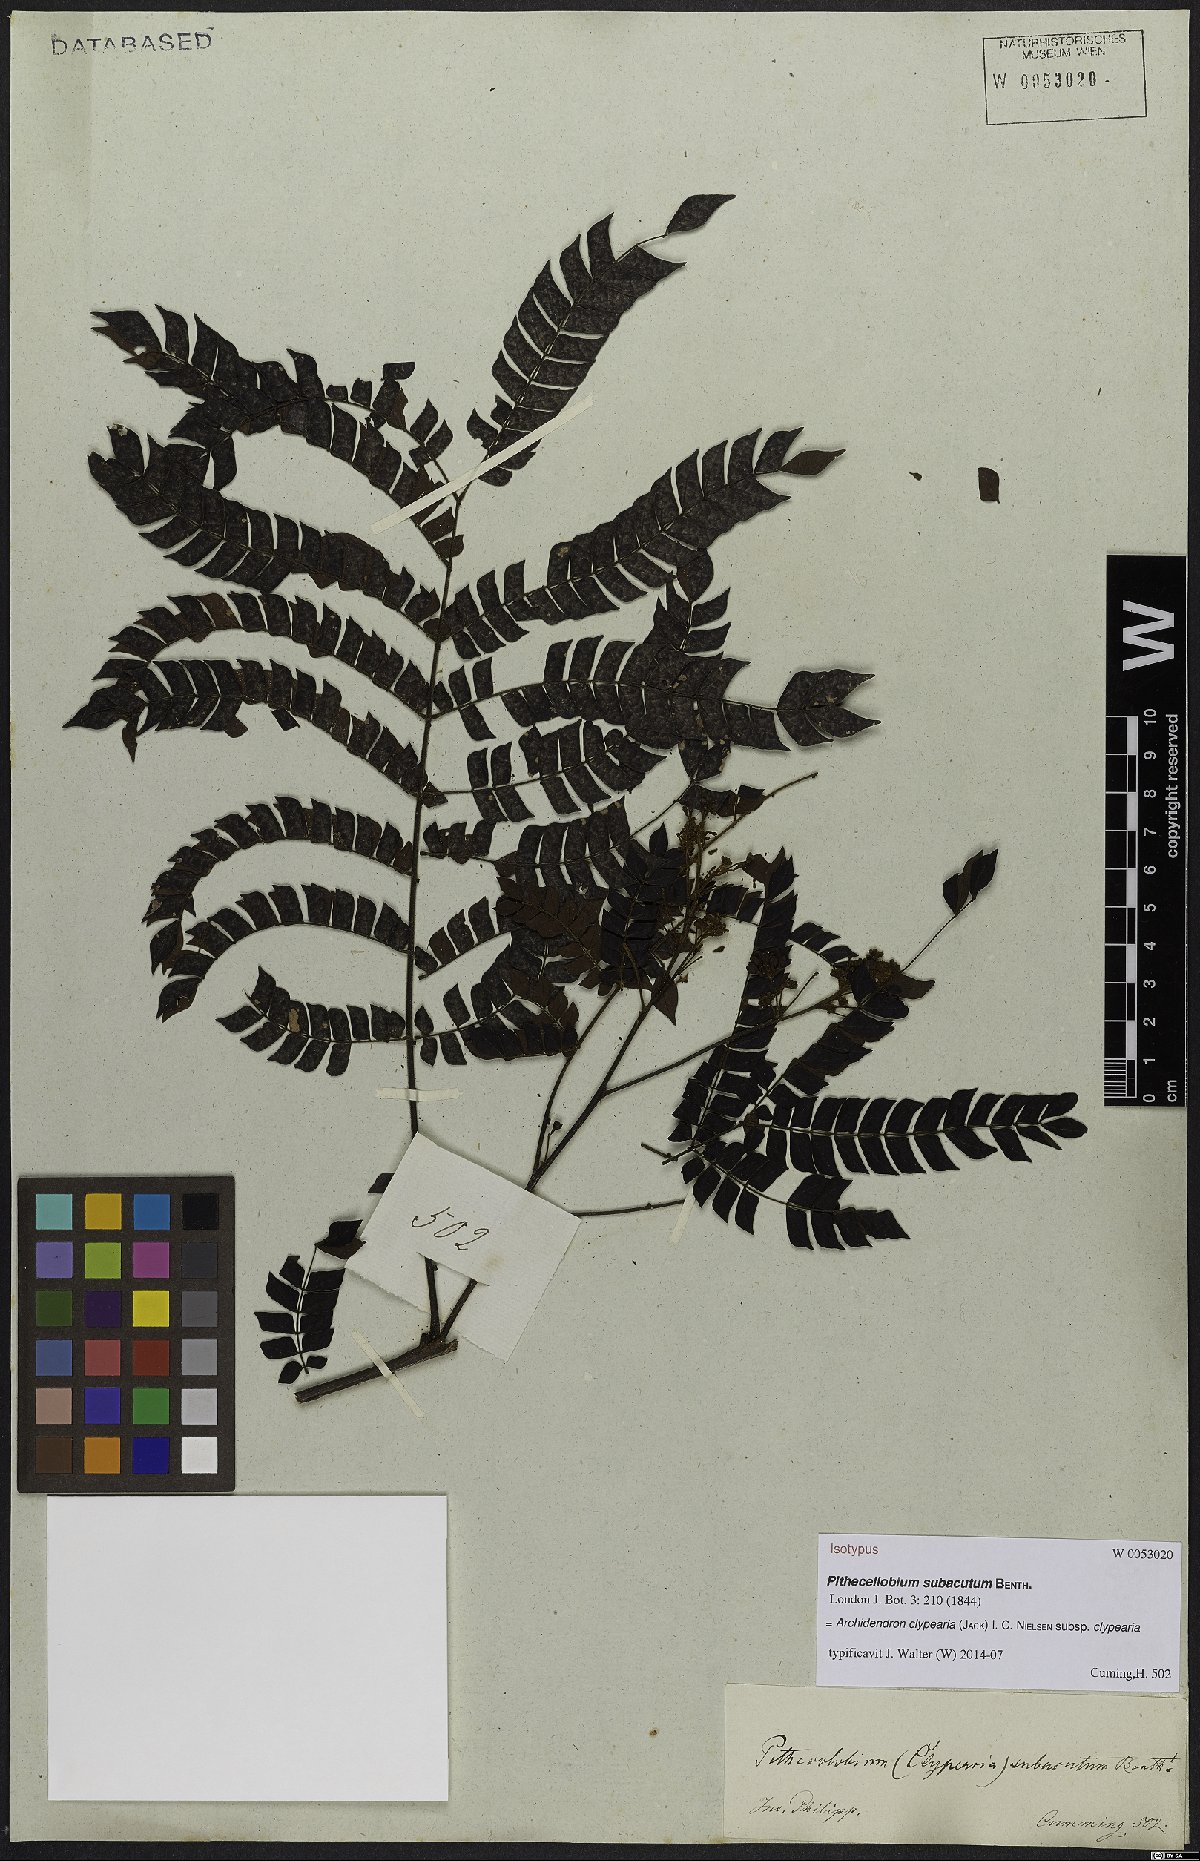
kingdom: Plantae
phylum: Tracheophyta
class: Magnoliopsida
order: Fabales
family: Fabaceae
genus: Archidendron
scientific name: Archidendron clypearia
